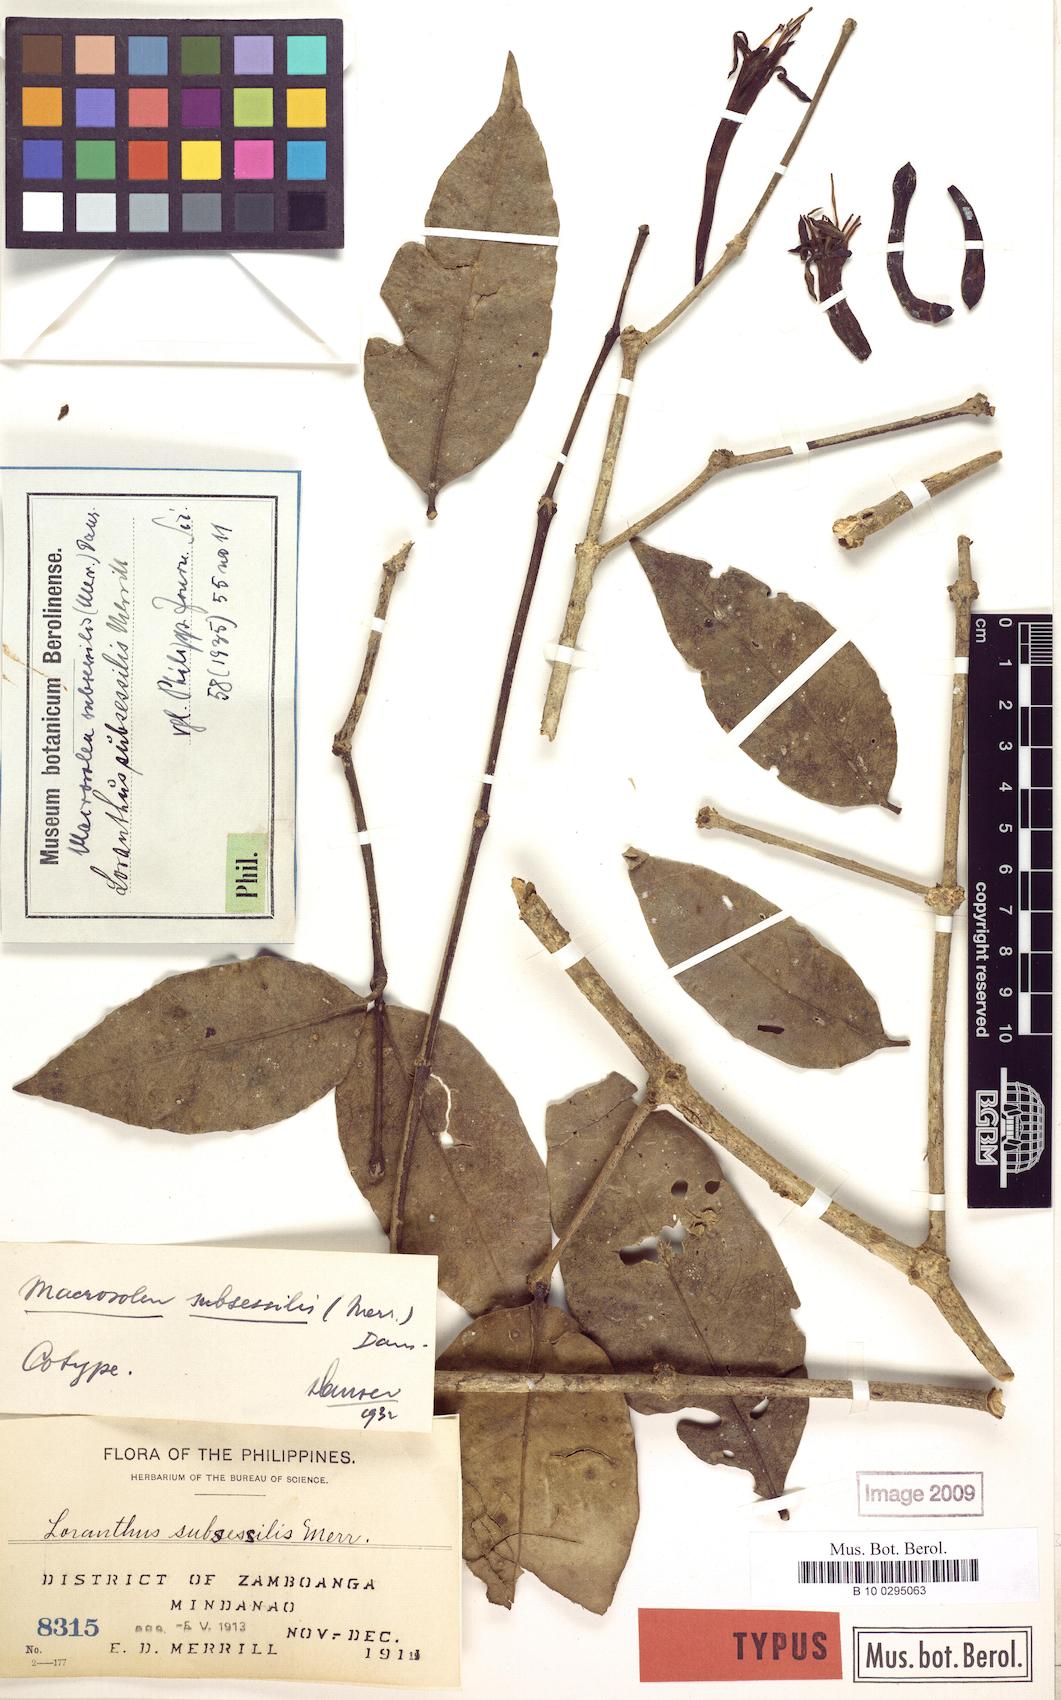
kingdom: Plantae
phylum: Tracheophyta
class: Magnoliopsida
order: Santalales
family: Loranthaceae
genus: Macrosolen
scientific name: Macrosolen dianthus
